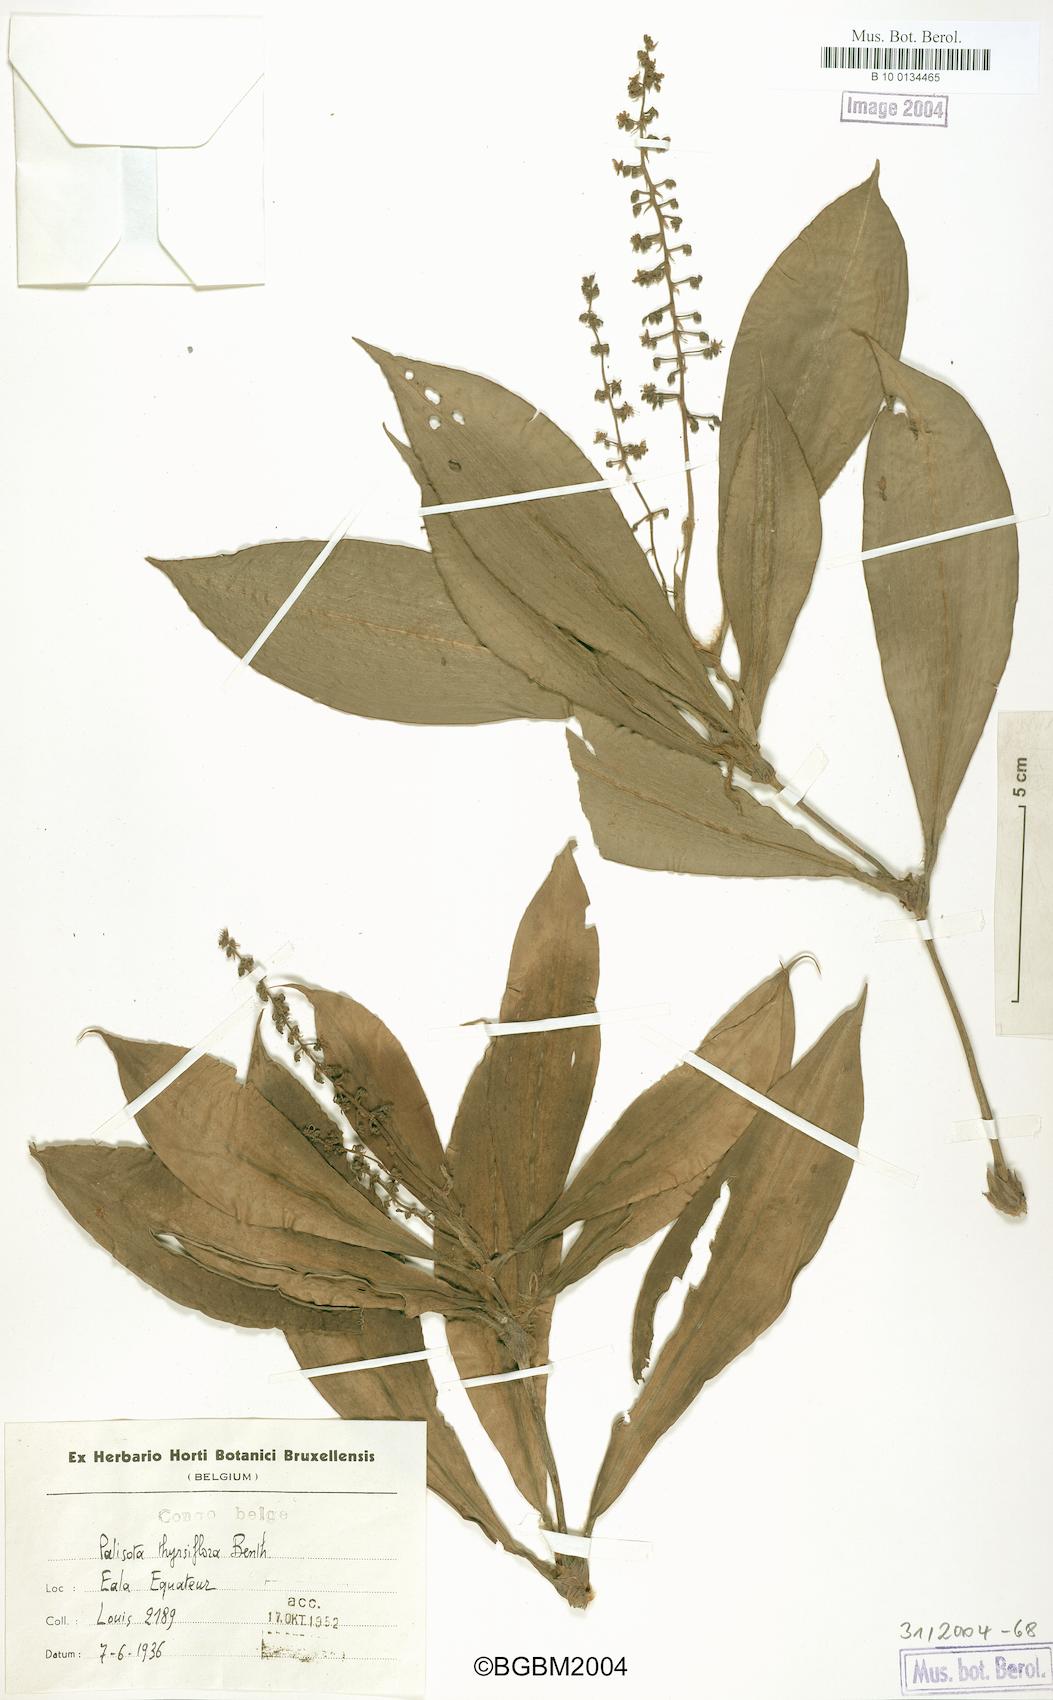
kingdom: Plantae
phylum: Tracheophyta
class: Liliopsida
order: Commelinales
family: Commelinaceae
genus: Palisota
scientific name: Palisota thollonii
